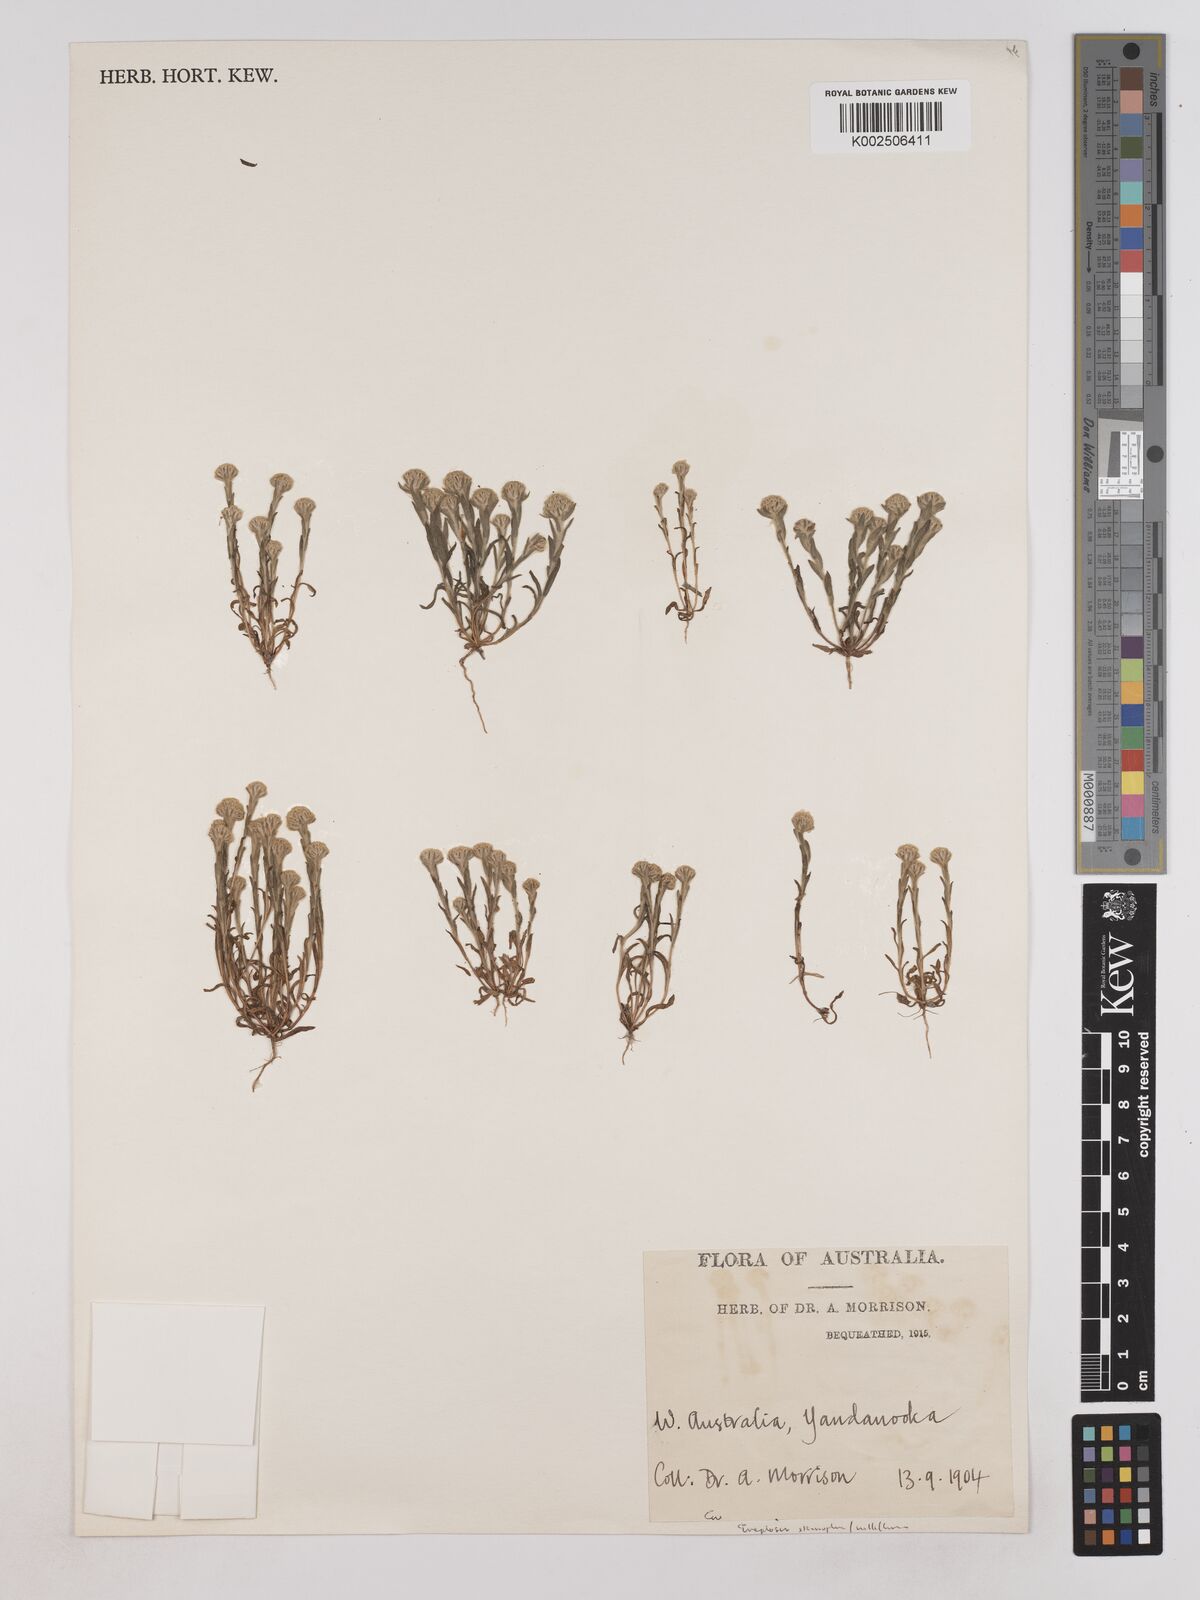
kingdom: Plantae
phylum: Tracheophyta
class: Magnoliopsida
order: Asterales
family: Asteraceae
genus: Trichanthodium
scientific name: Trichanthodium skirrophorum
